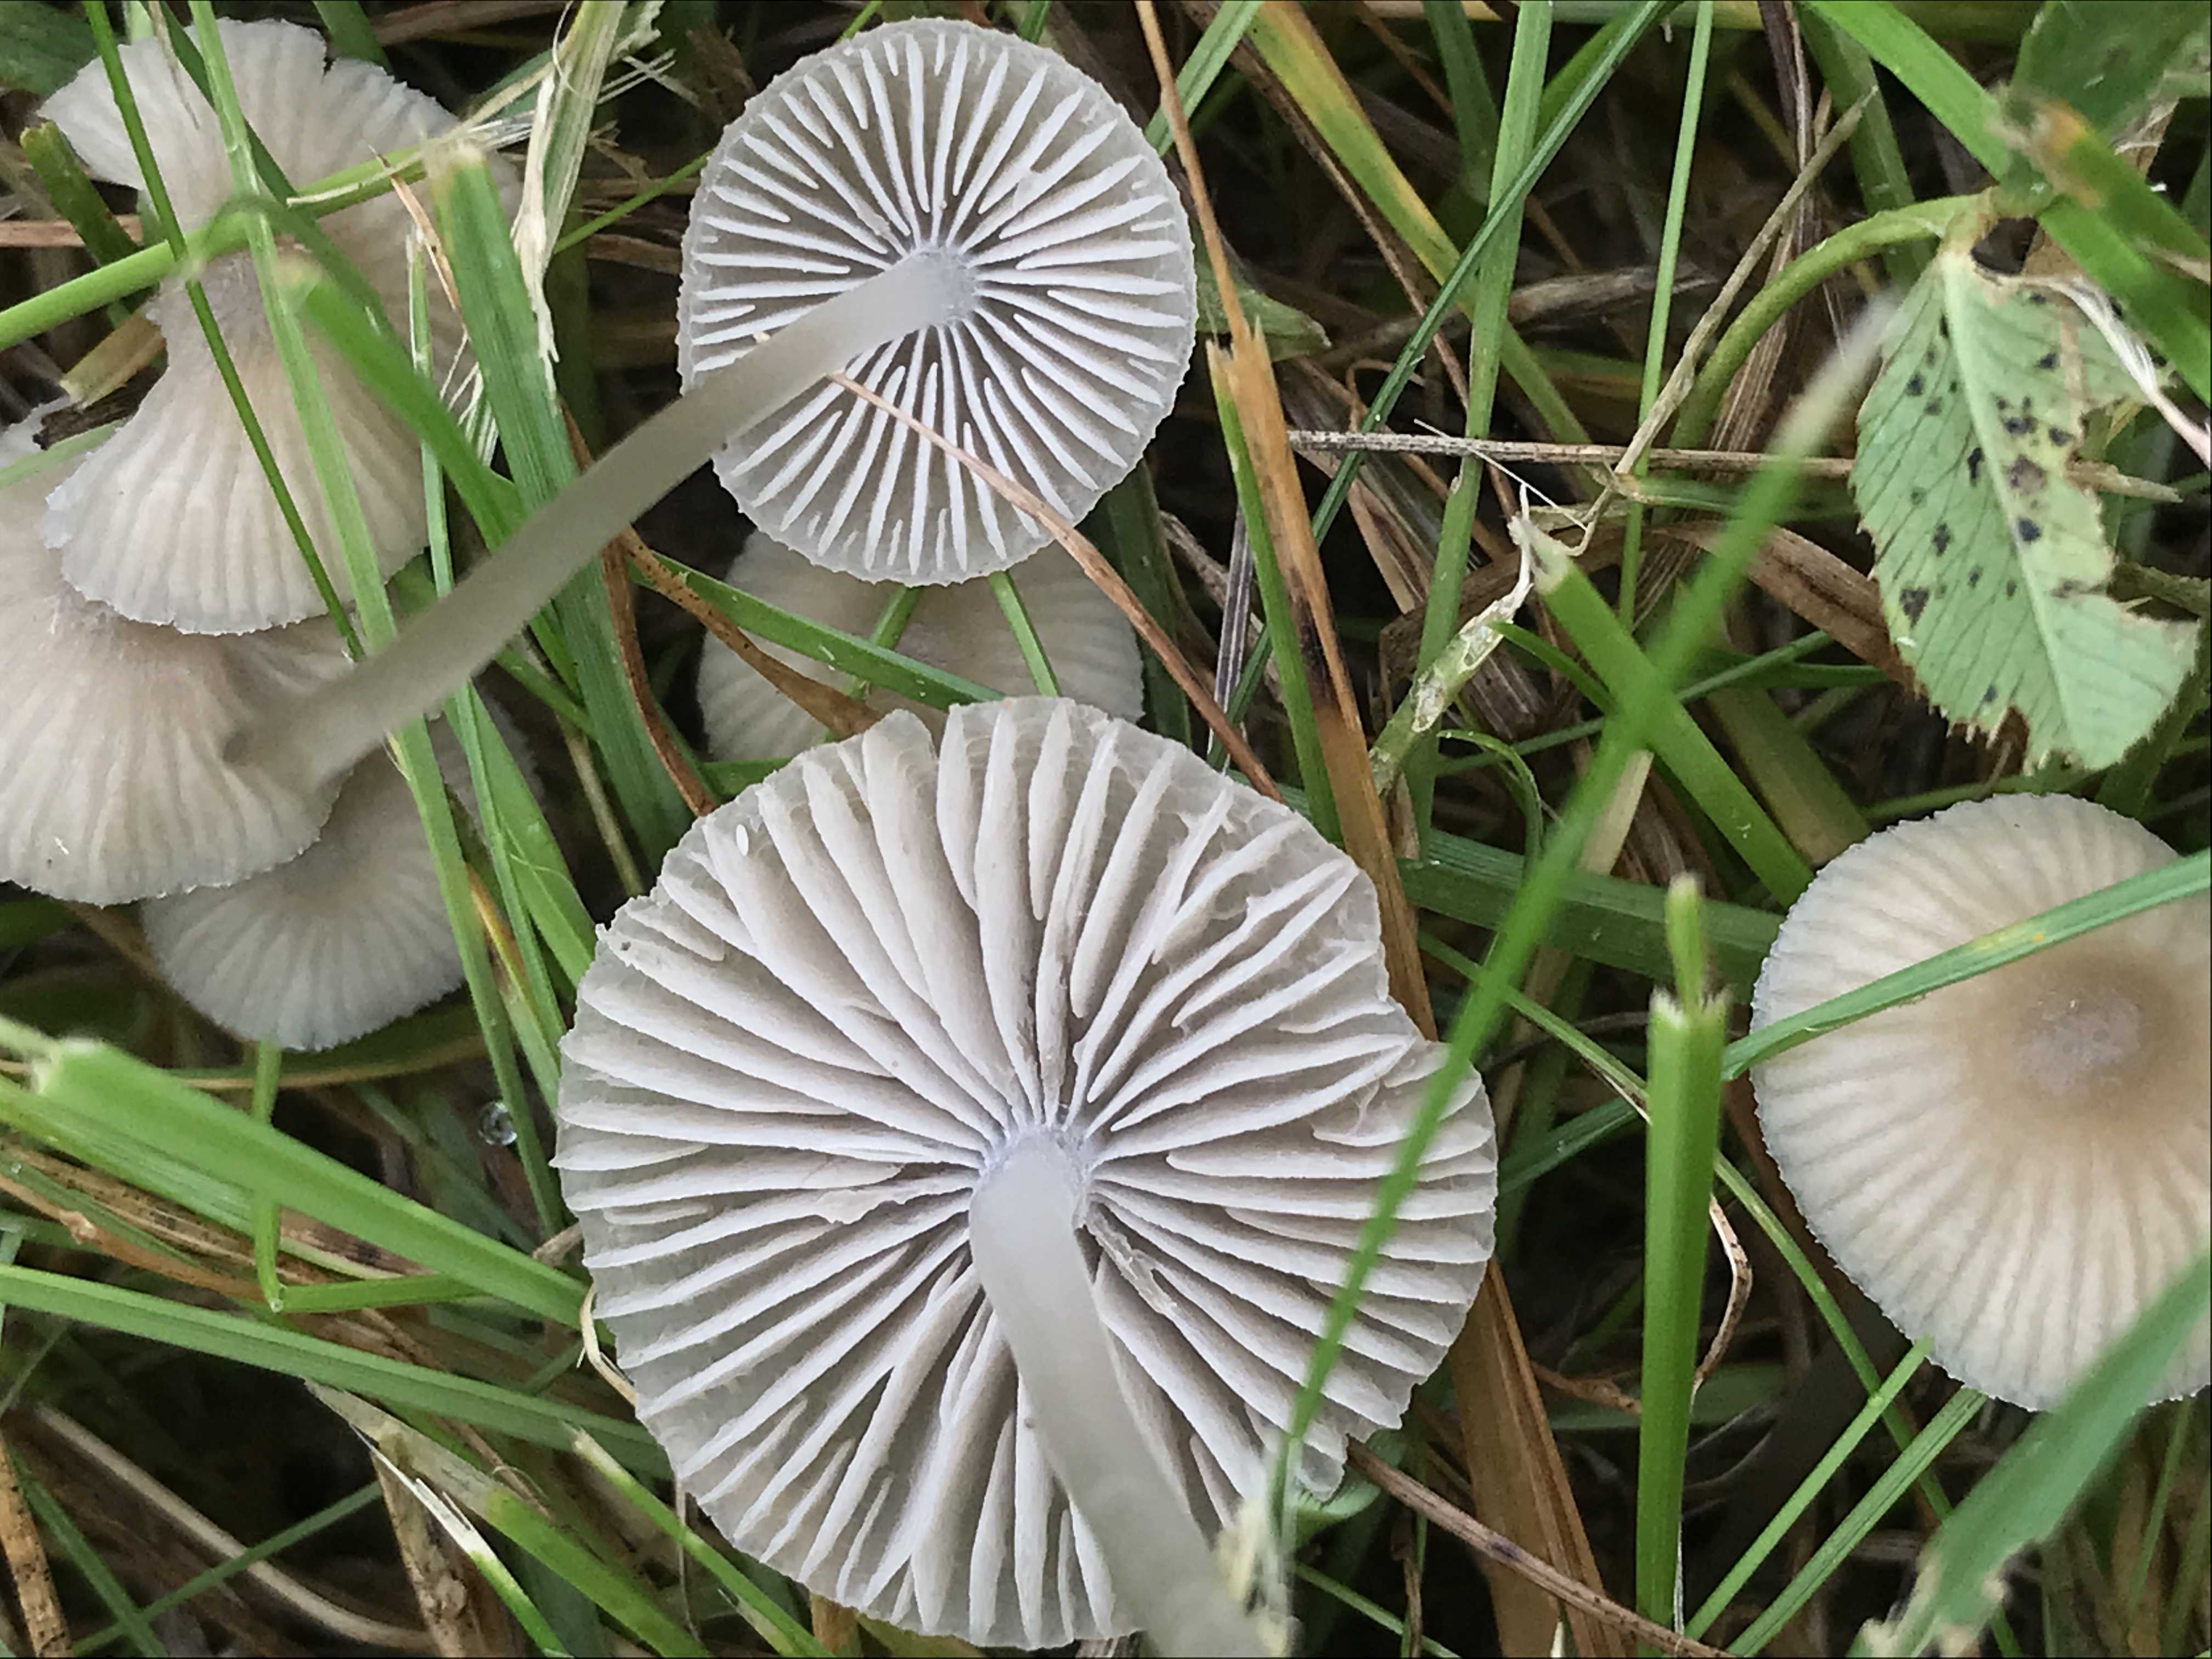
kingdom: Fungi
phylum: Basidiomycota
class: Agaricomycetes
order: Agaricales
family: Mycenaceae
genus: Mycena
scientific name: Mycena
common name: huesvamp
